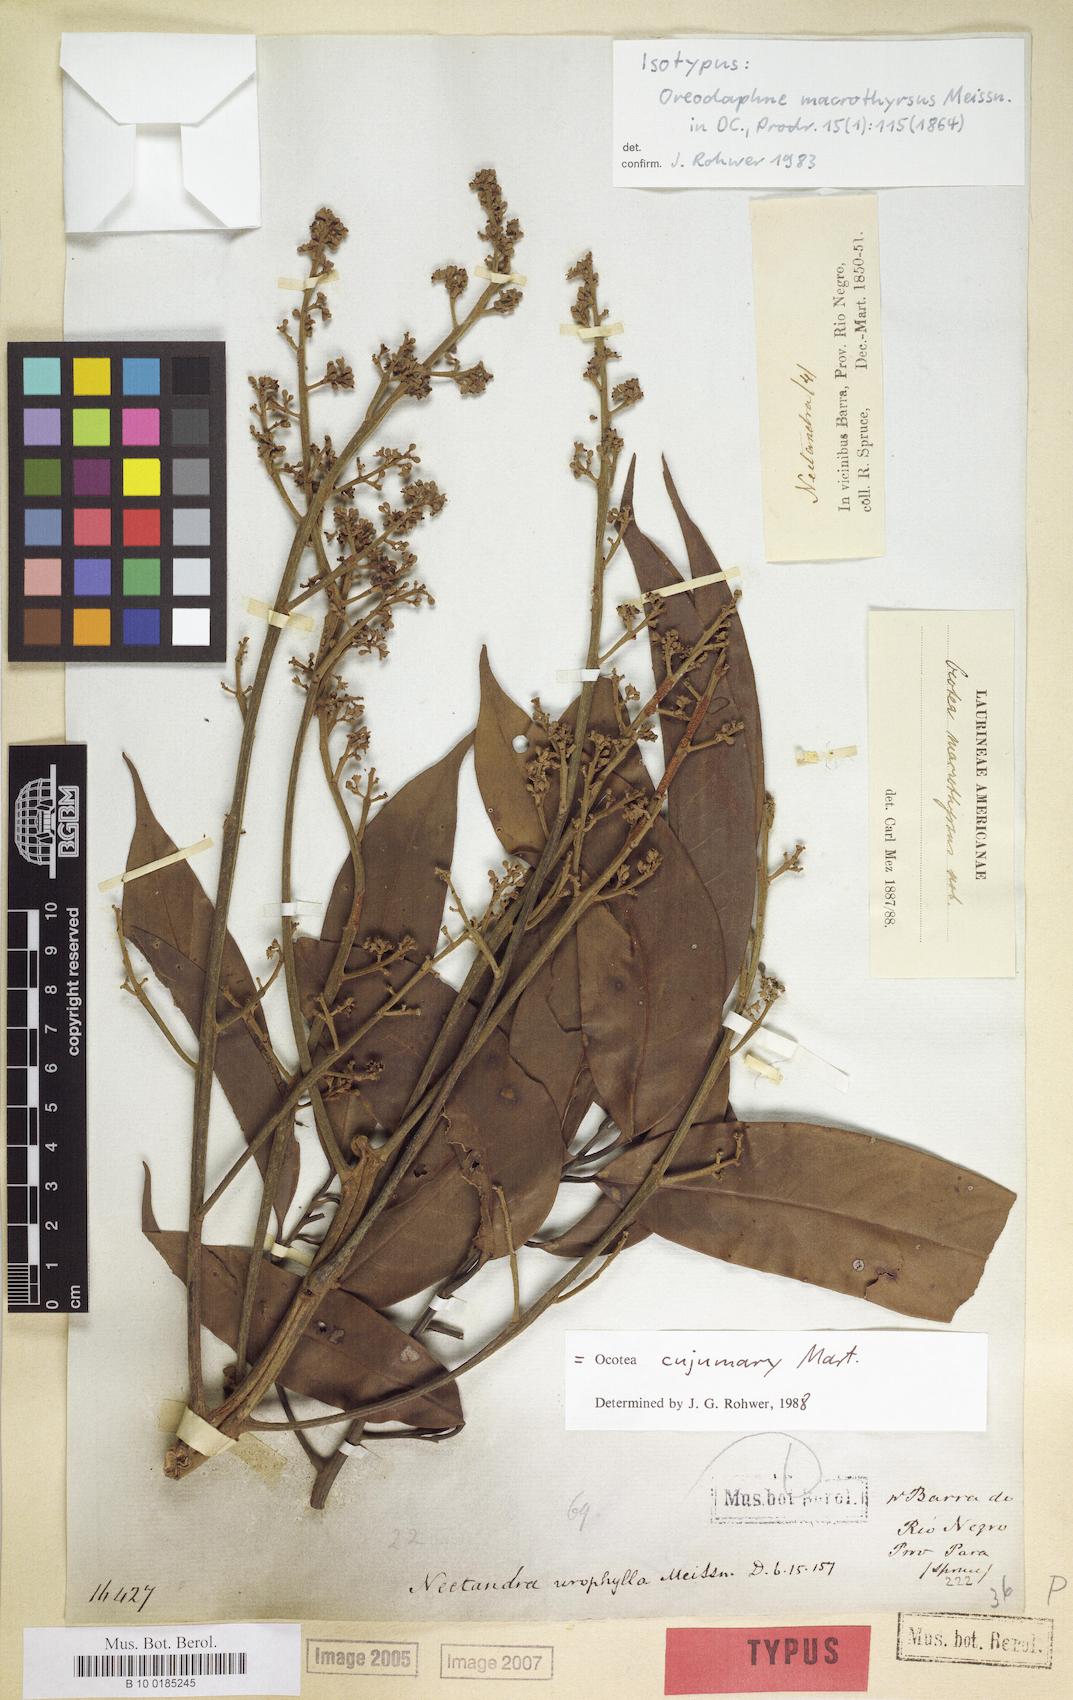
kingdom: Plantae
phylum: Tracheophyta
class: Magnoliopsida
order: Laurales
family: Lauraceae
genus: Ocotea
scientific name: Ocotea cujumary
